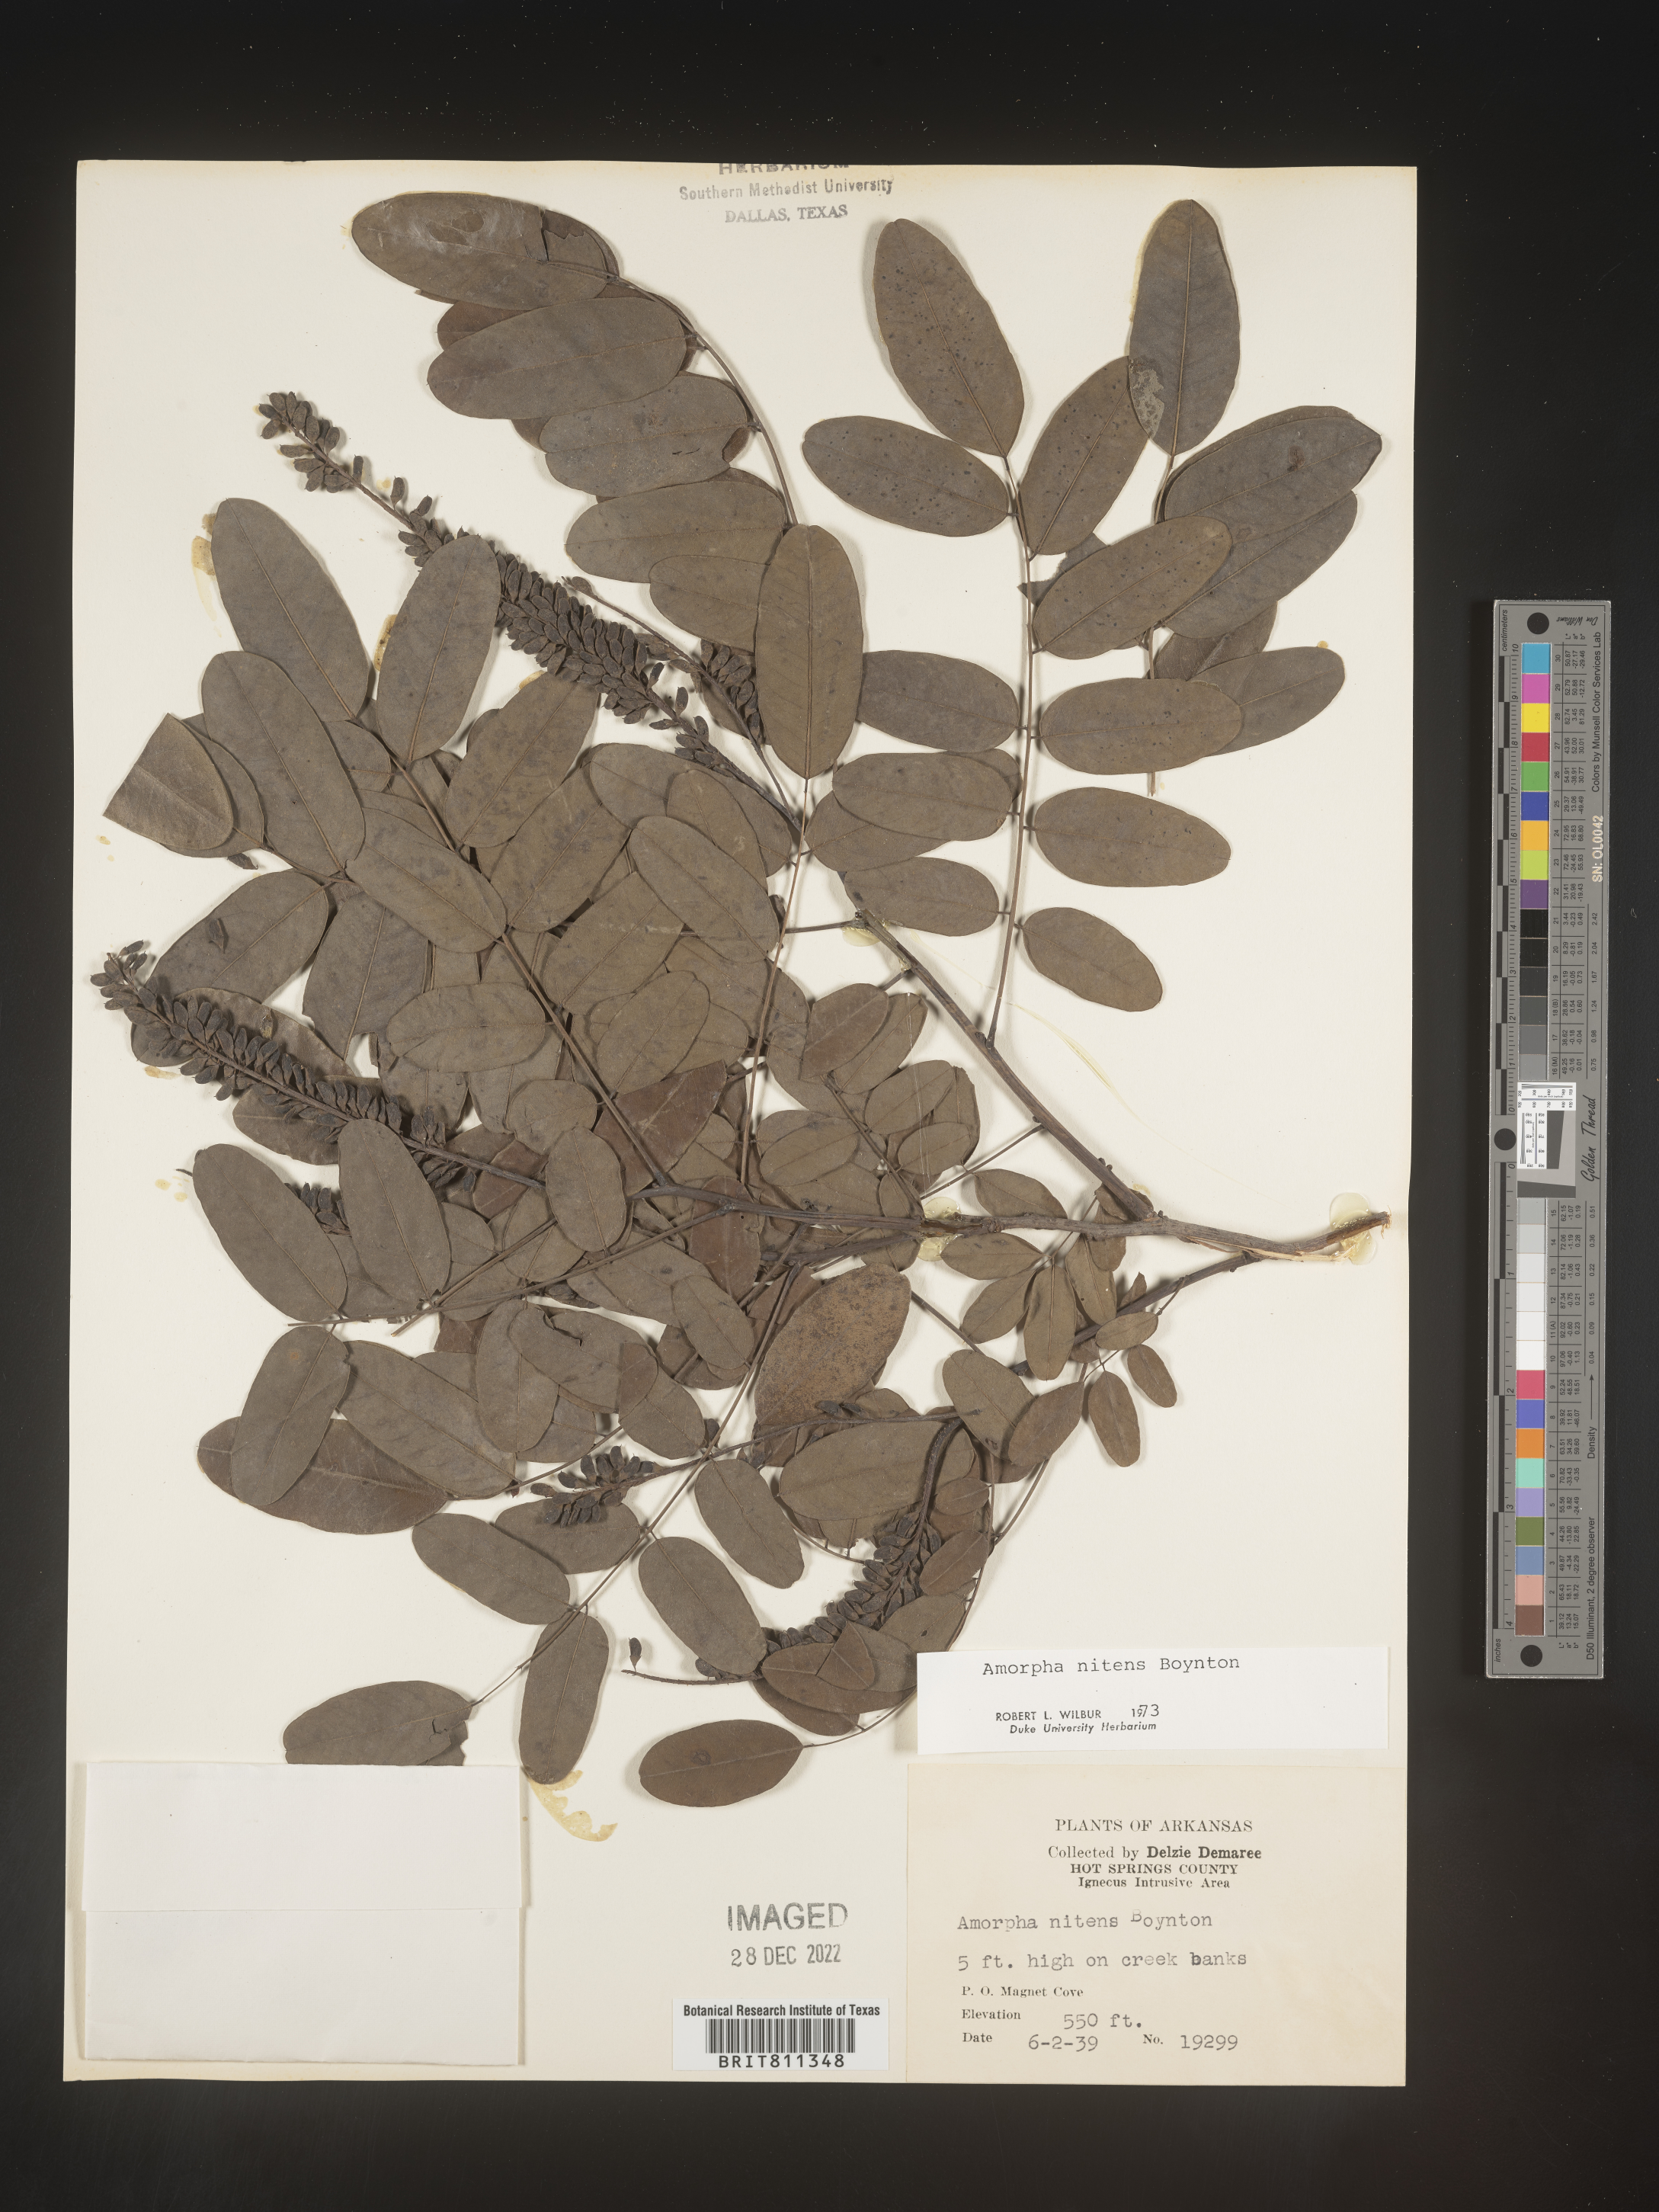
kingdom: Plantae
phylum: Tracheophyta
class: Magnoliopsida
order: Fabales
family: Fabaceae
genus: Amorpha
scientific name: Amorpha nitens
